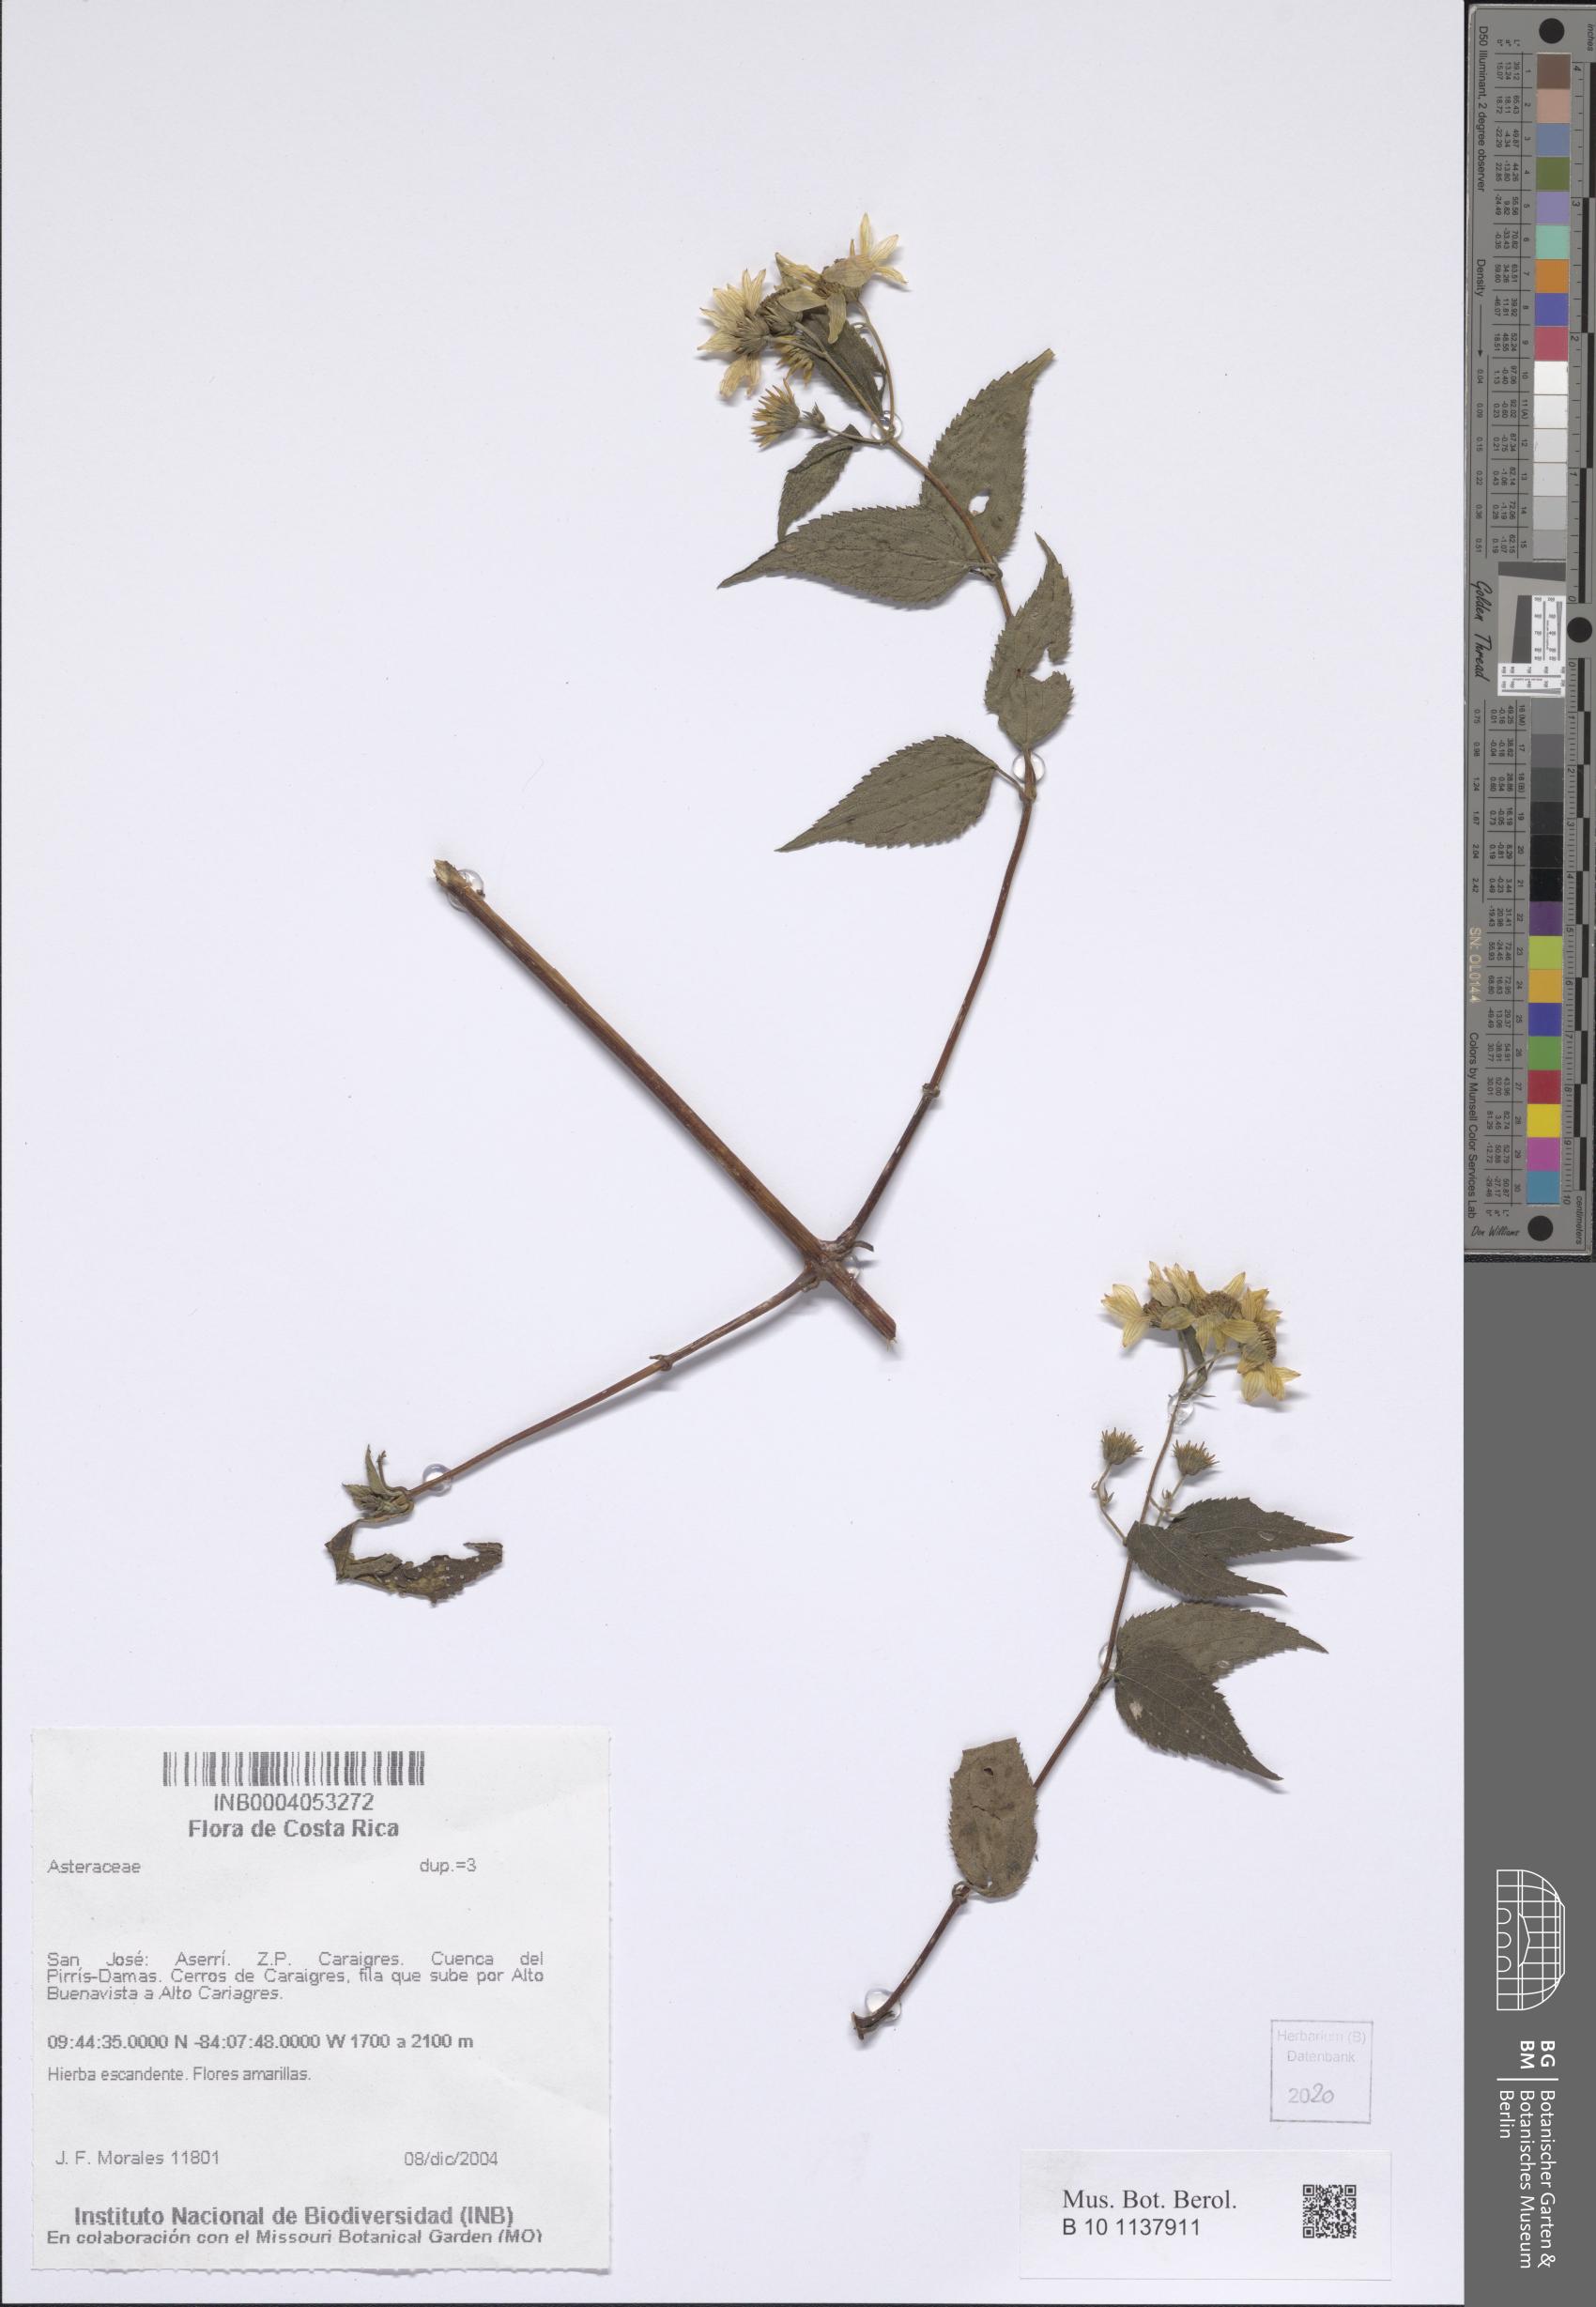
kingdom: Plantae
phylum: Tracheophyta
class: Magnoliopsida
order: Asterales
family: Asteraceae
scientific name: Asteraceae
